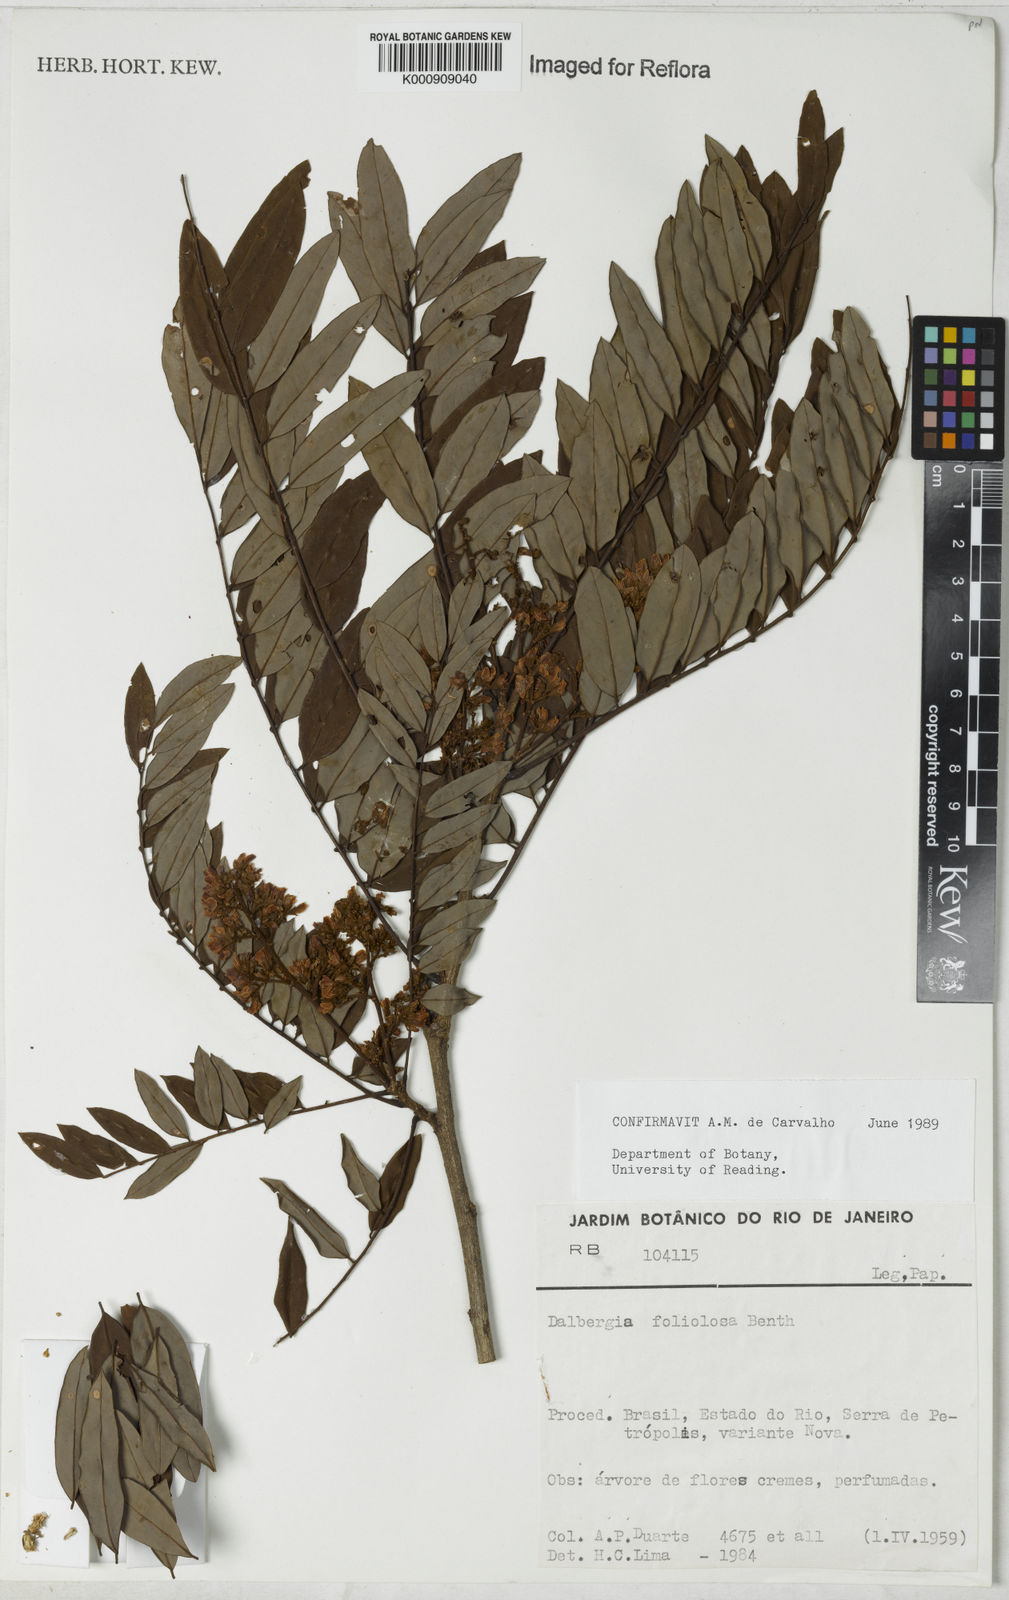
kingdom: Plantae
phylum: Tracheophyta
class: Magnoliopsida
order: Fabales
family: Fabaceae
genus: Dalbergia
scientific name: Dalbergia foliolosa
